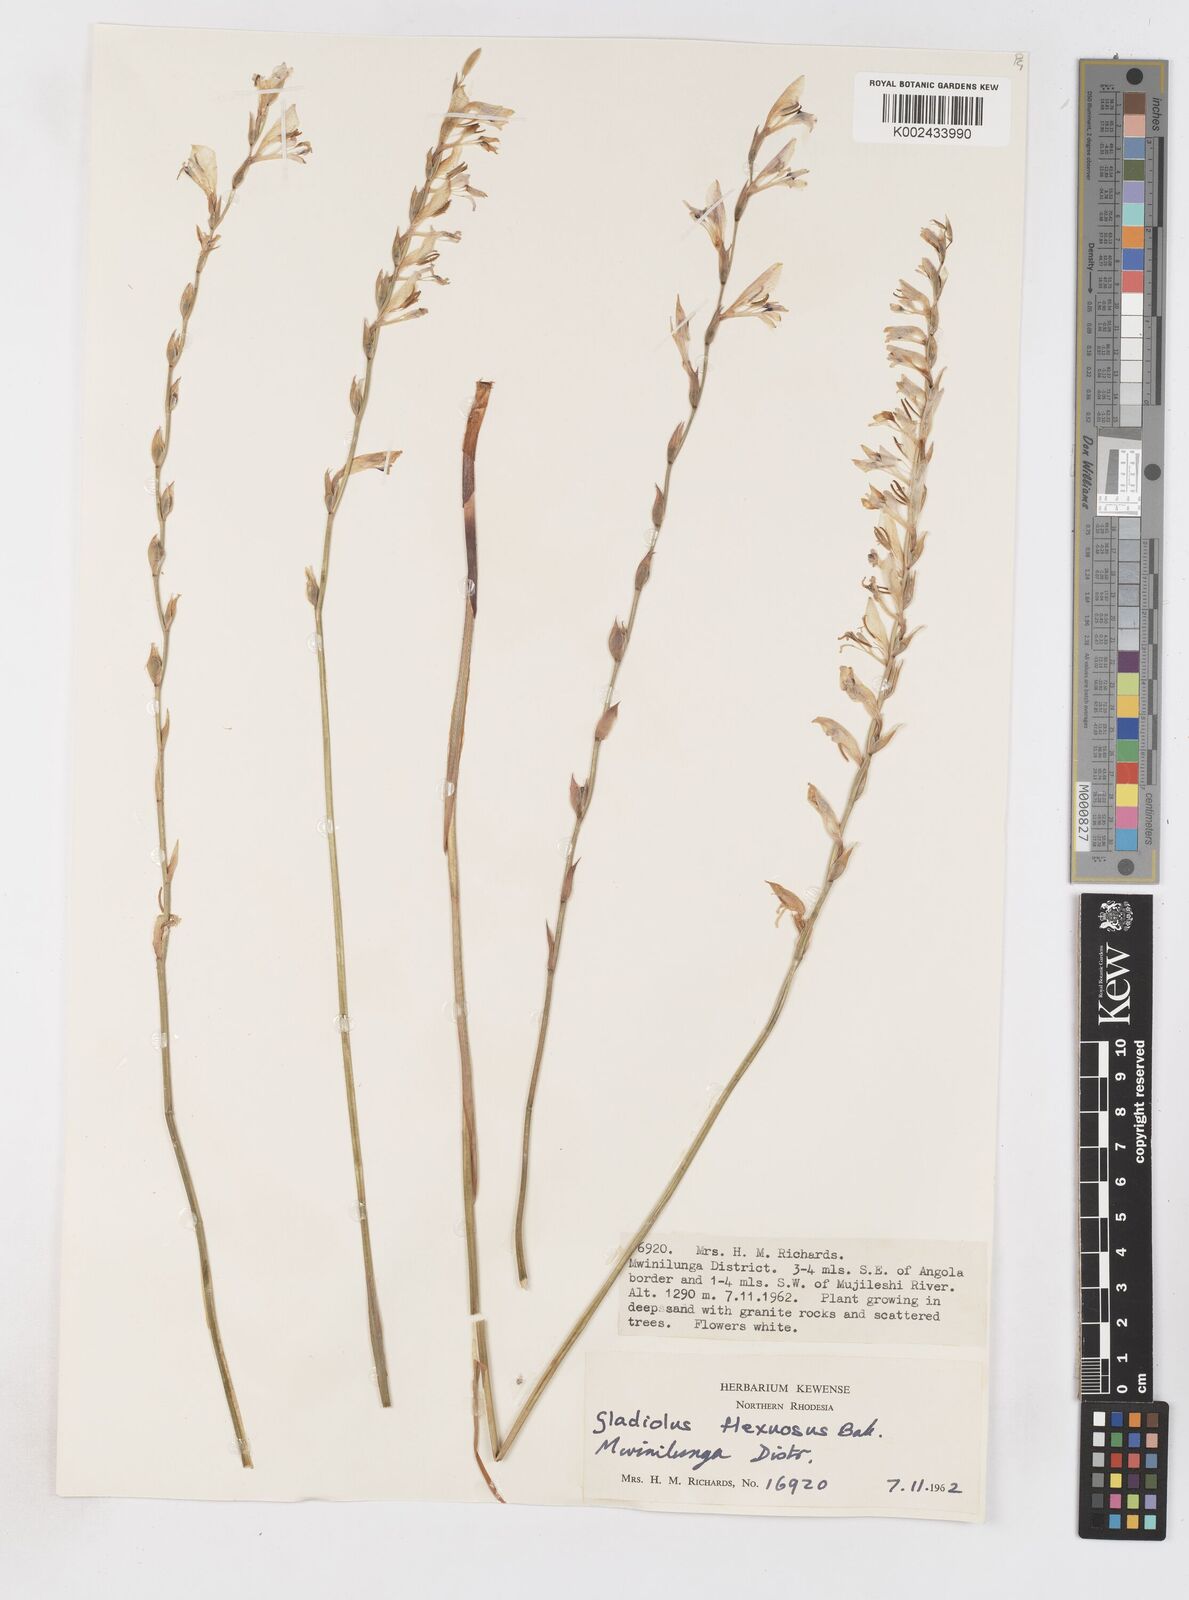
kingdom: Plantae
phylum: Tracheophyta
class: Liliopsida
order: Asparagales
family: Iridaceae
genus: Gladiolus
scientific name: Gladiolus atropurpureus
